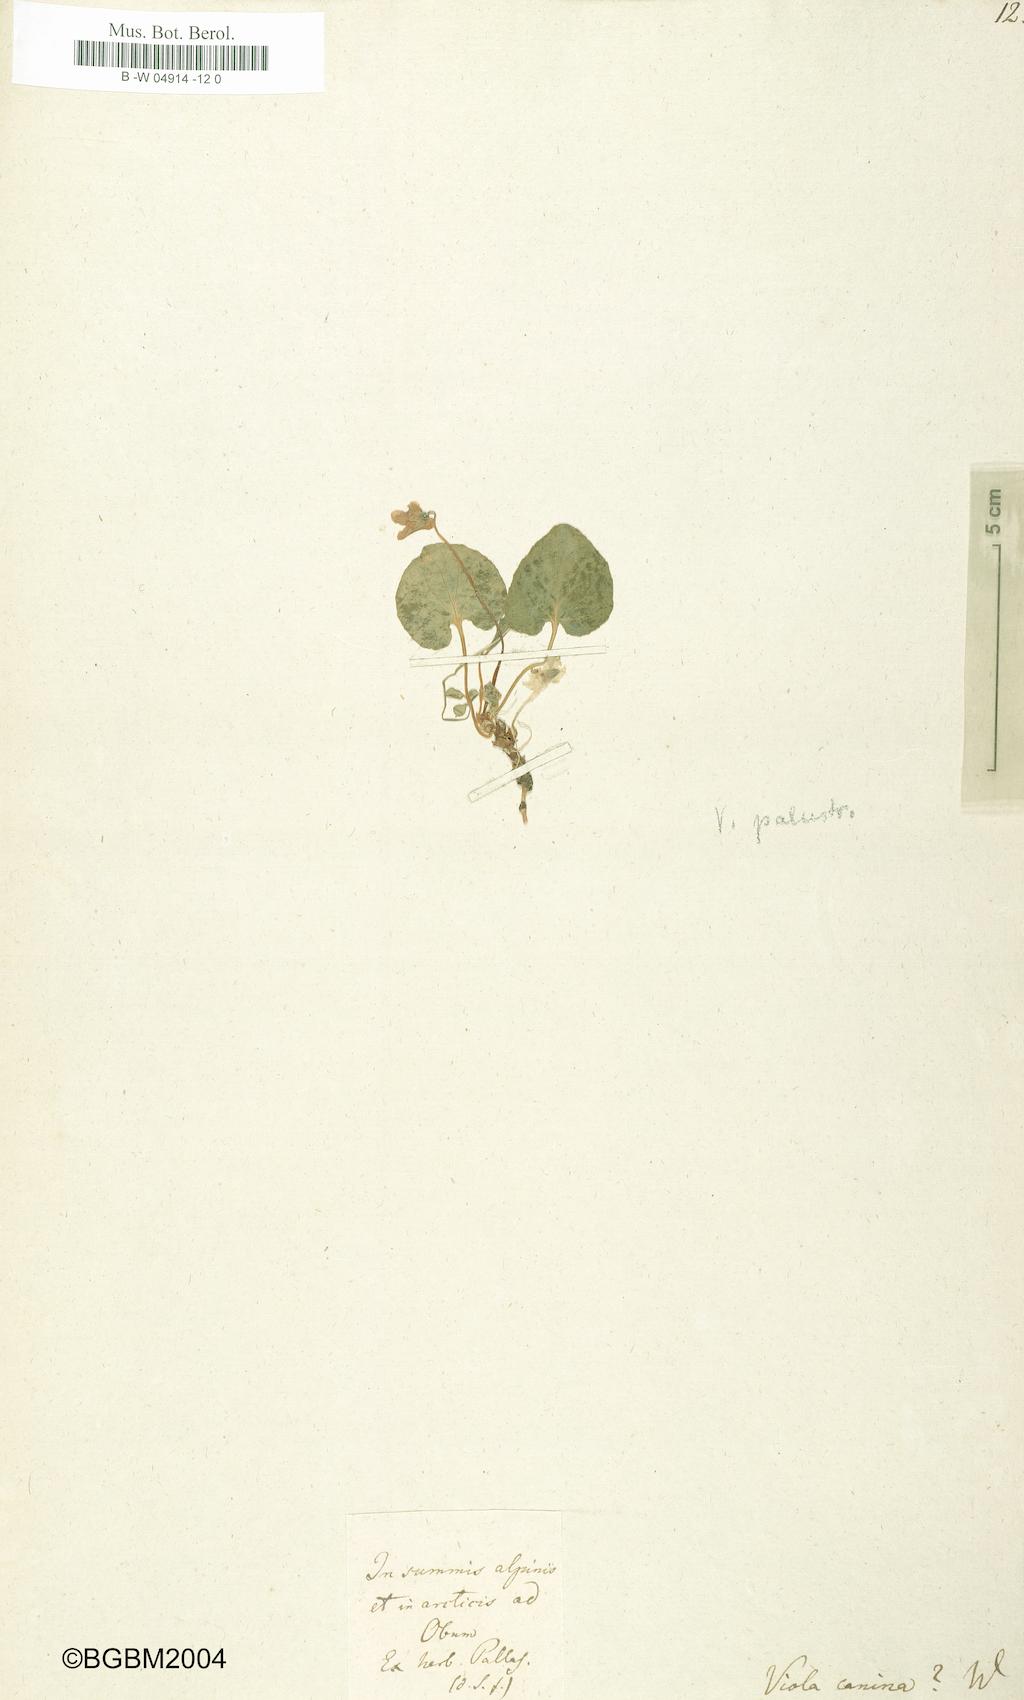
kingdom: Plantae
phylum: Tracheophyta
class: Magnoliopsida
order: Malpighiales
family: Violaceae
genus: Viola
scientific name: Viola canina
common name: Heath dog-violet
